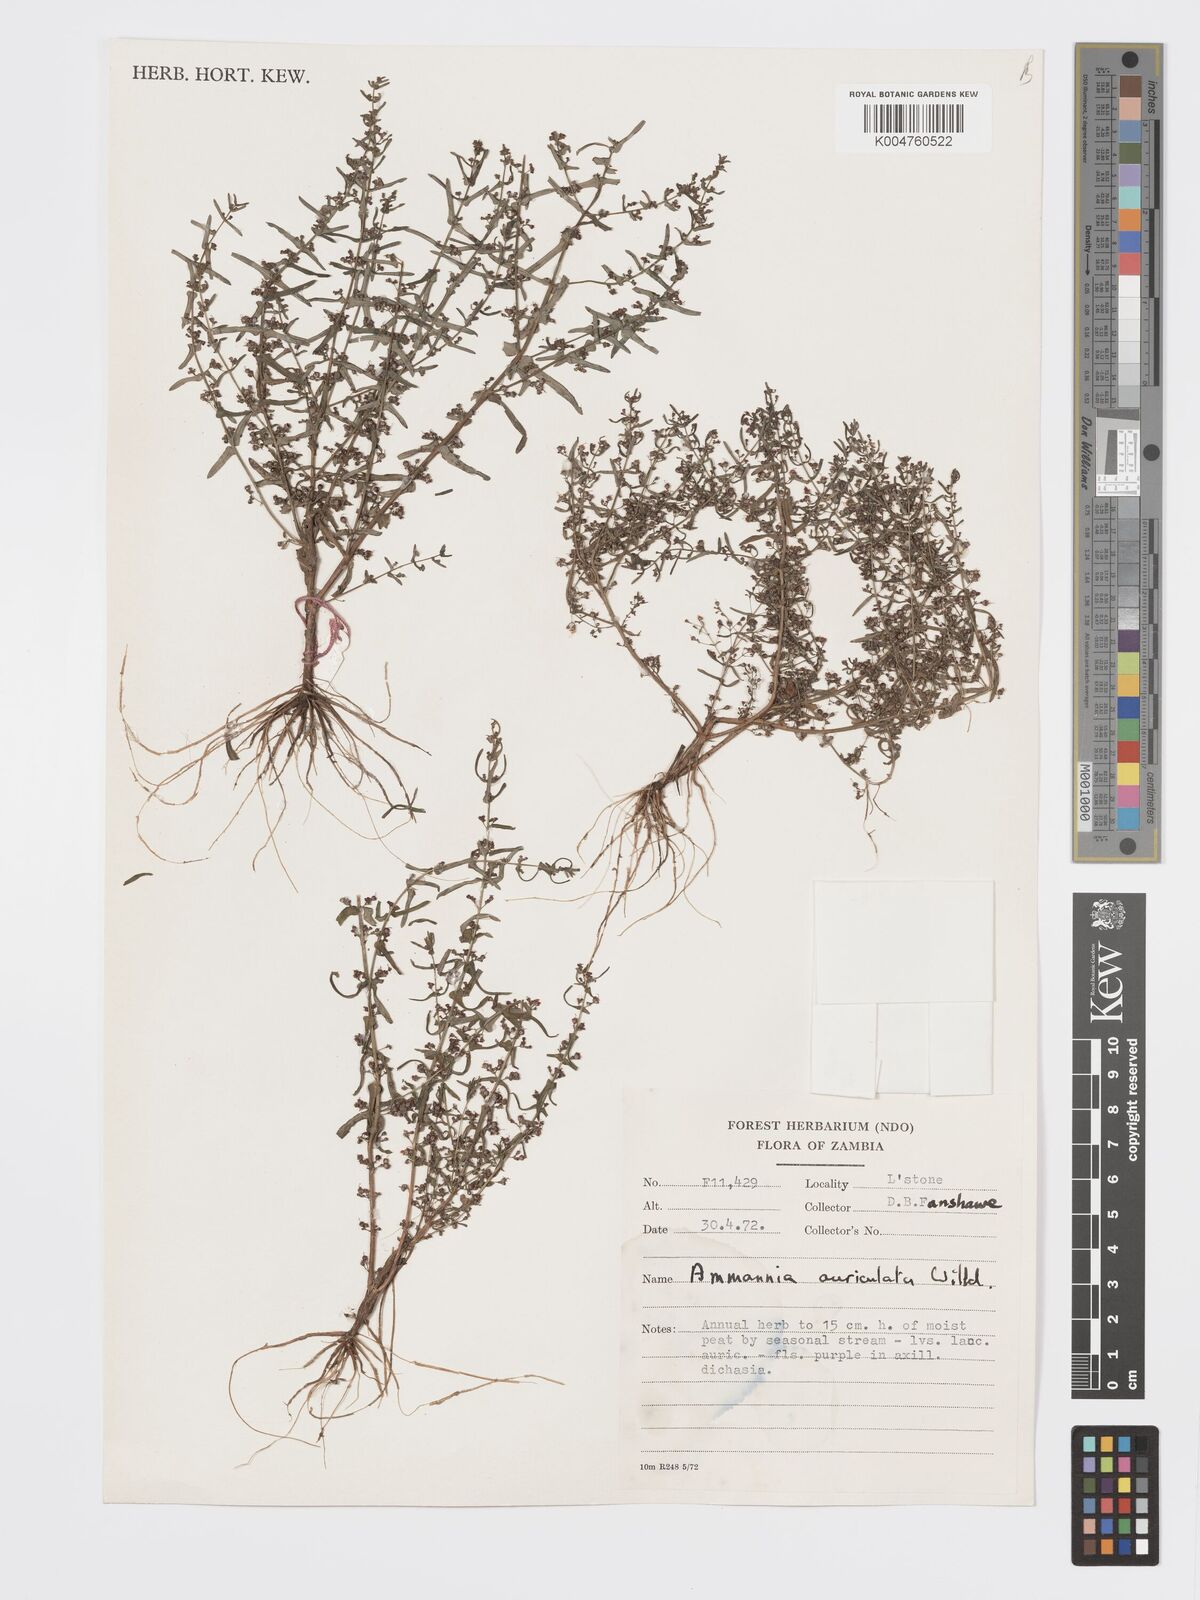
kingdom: Plantae
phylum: Tracheophyta
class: Magnoliopsida
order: Myrtales
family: Lythraceae
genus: Ammannia
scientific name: Ammannia auriculata
